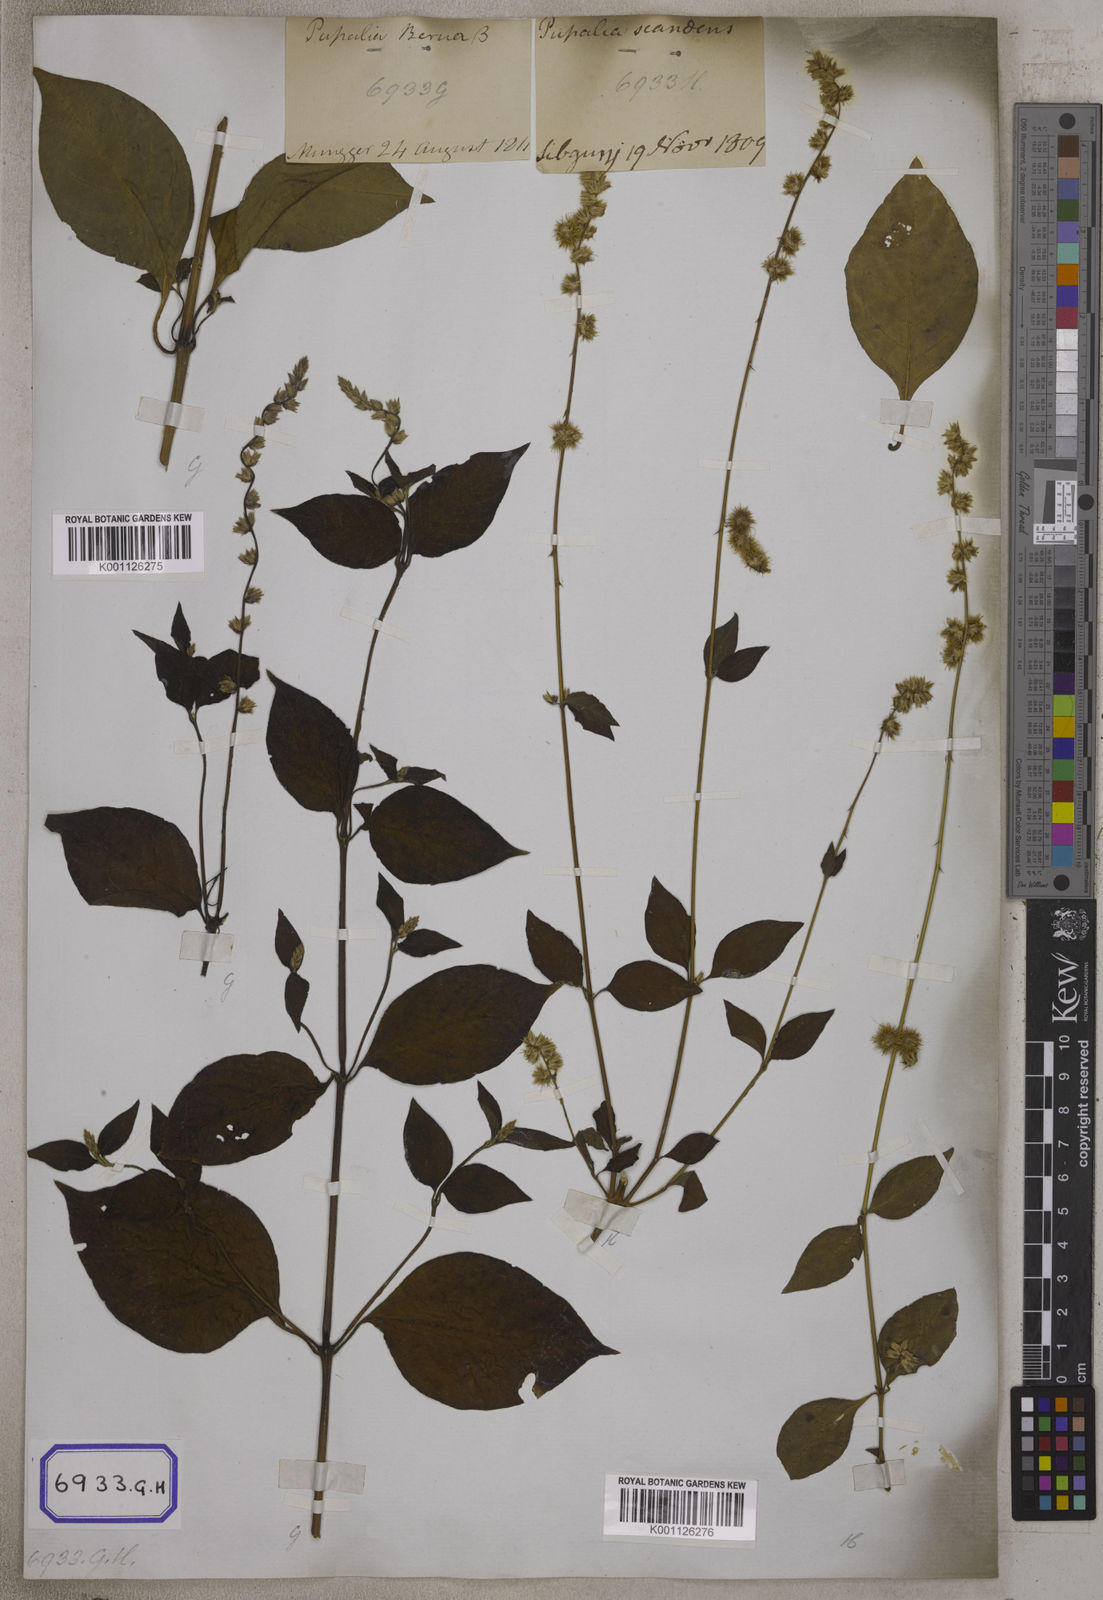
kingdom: Plantae
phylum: Tracheophyta
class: Magnoliopsida
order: Caryophyllales
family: Amaranthaceae
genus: Pupalia
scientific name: Pupalia lappacea
